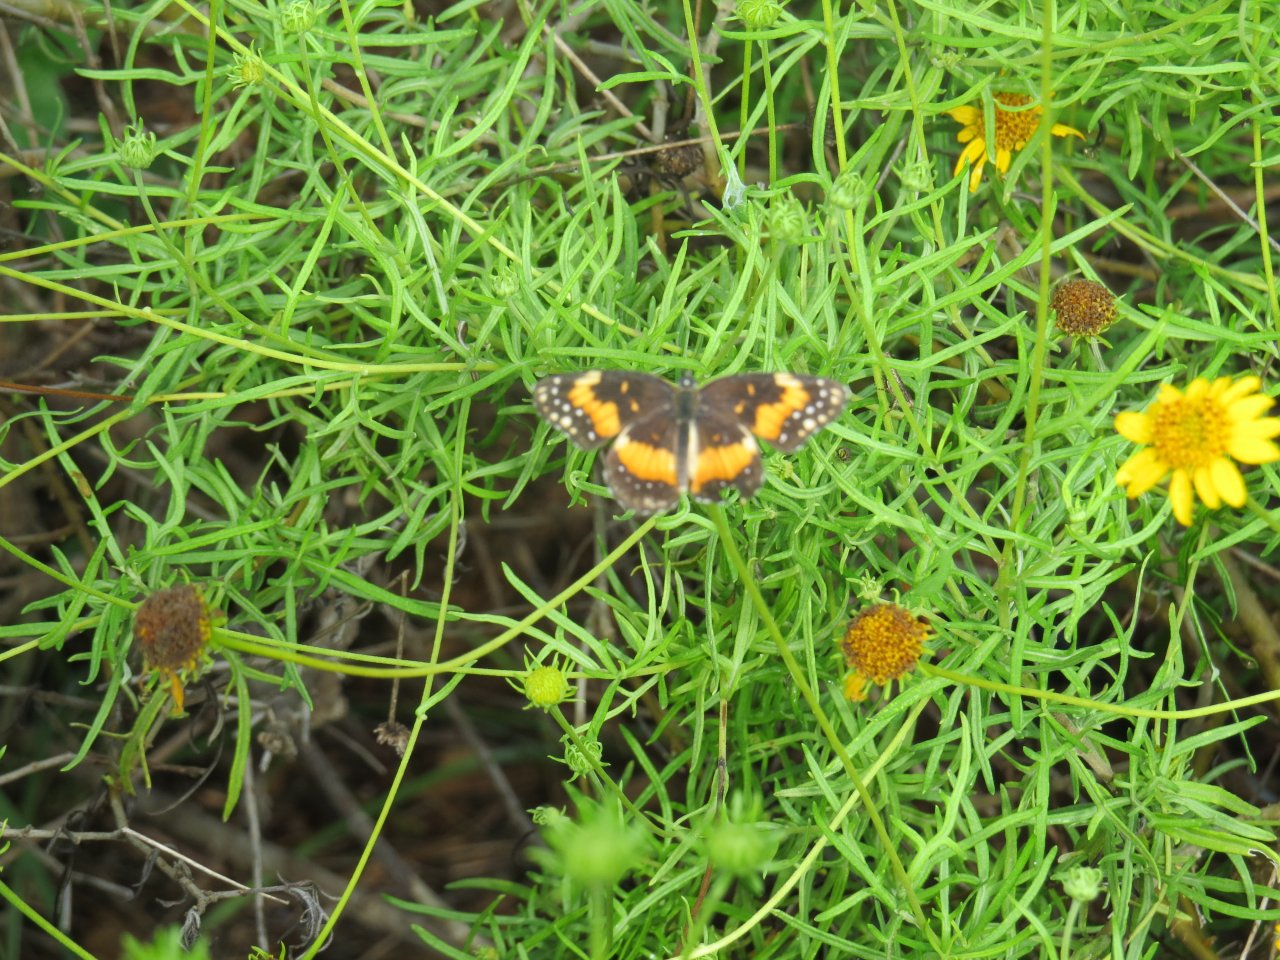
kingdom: Animalia
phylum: Arthropoda
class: Insecta
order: Lepidoptera
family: Nymphalidae
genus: Chlosyne
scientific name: Chlosyne lacinia
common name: Bordered Patch
